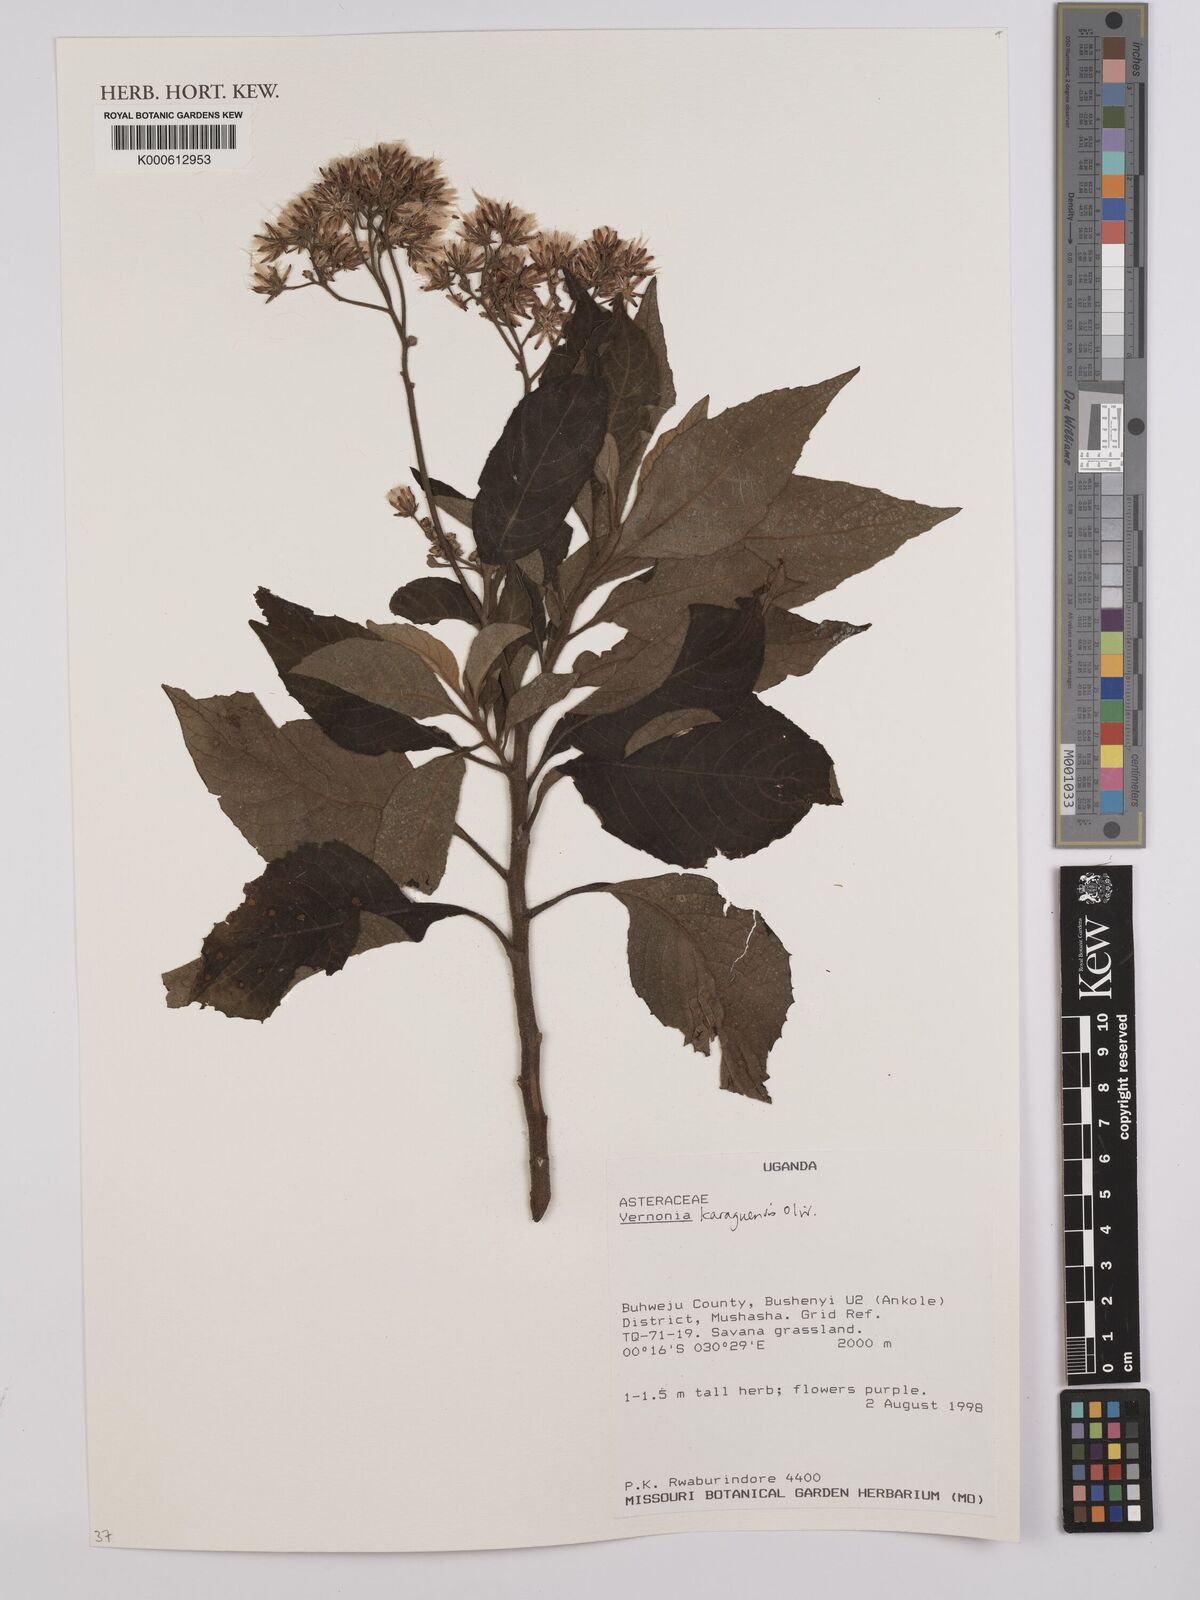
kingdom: Plantae
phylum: Tracheophyta
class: Magnoliopsida
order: Asterales
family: Asteraceae
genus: Orbivestus
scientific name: Orbivestus karaguensis
